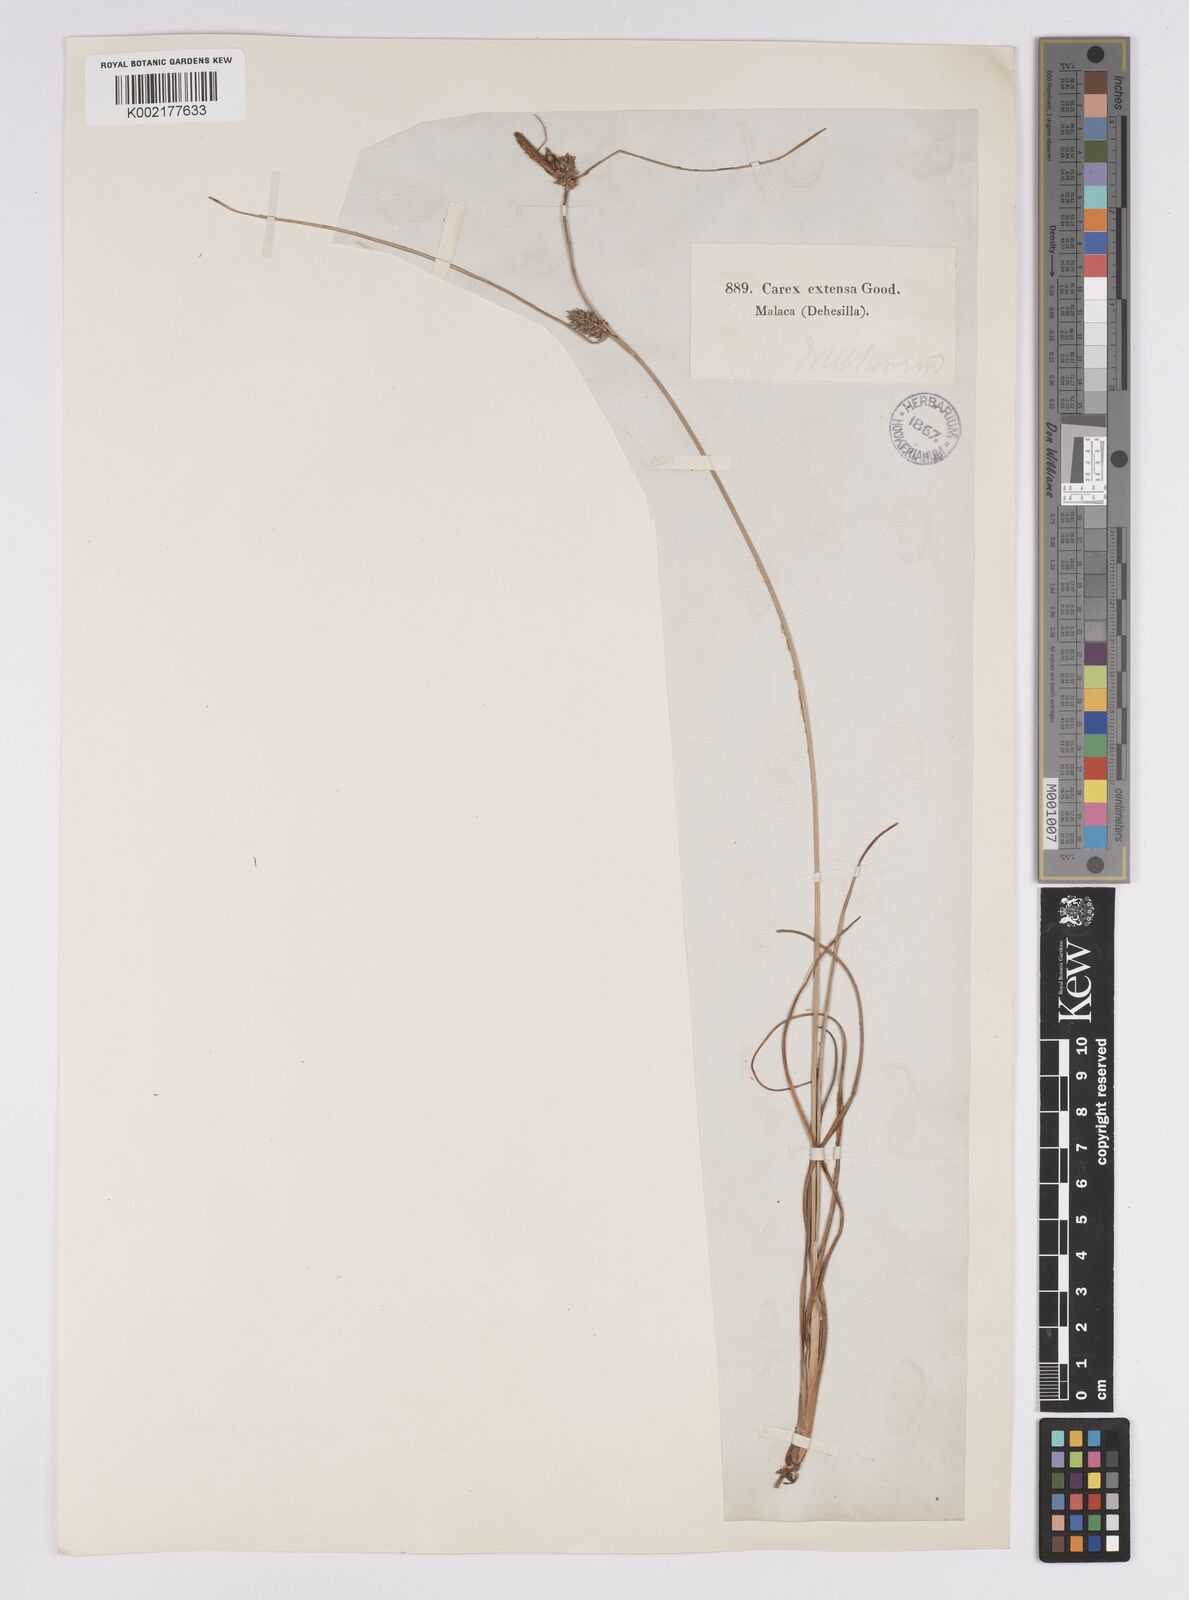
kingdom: Plantae
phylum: Tracheophyta
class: Liliopsida
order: Poales
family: Cyperaceae
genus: Carex
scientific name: Carex extensa
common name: Long-bracted sedge
